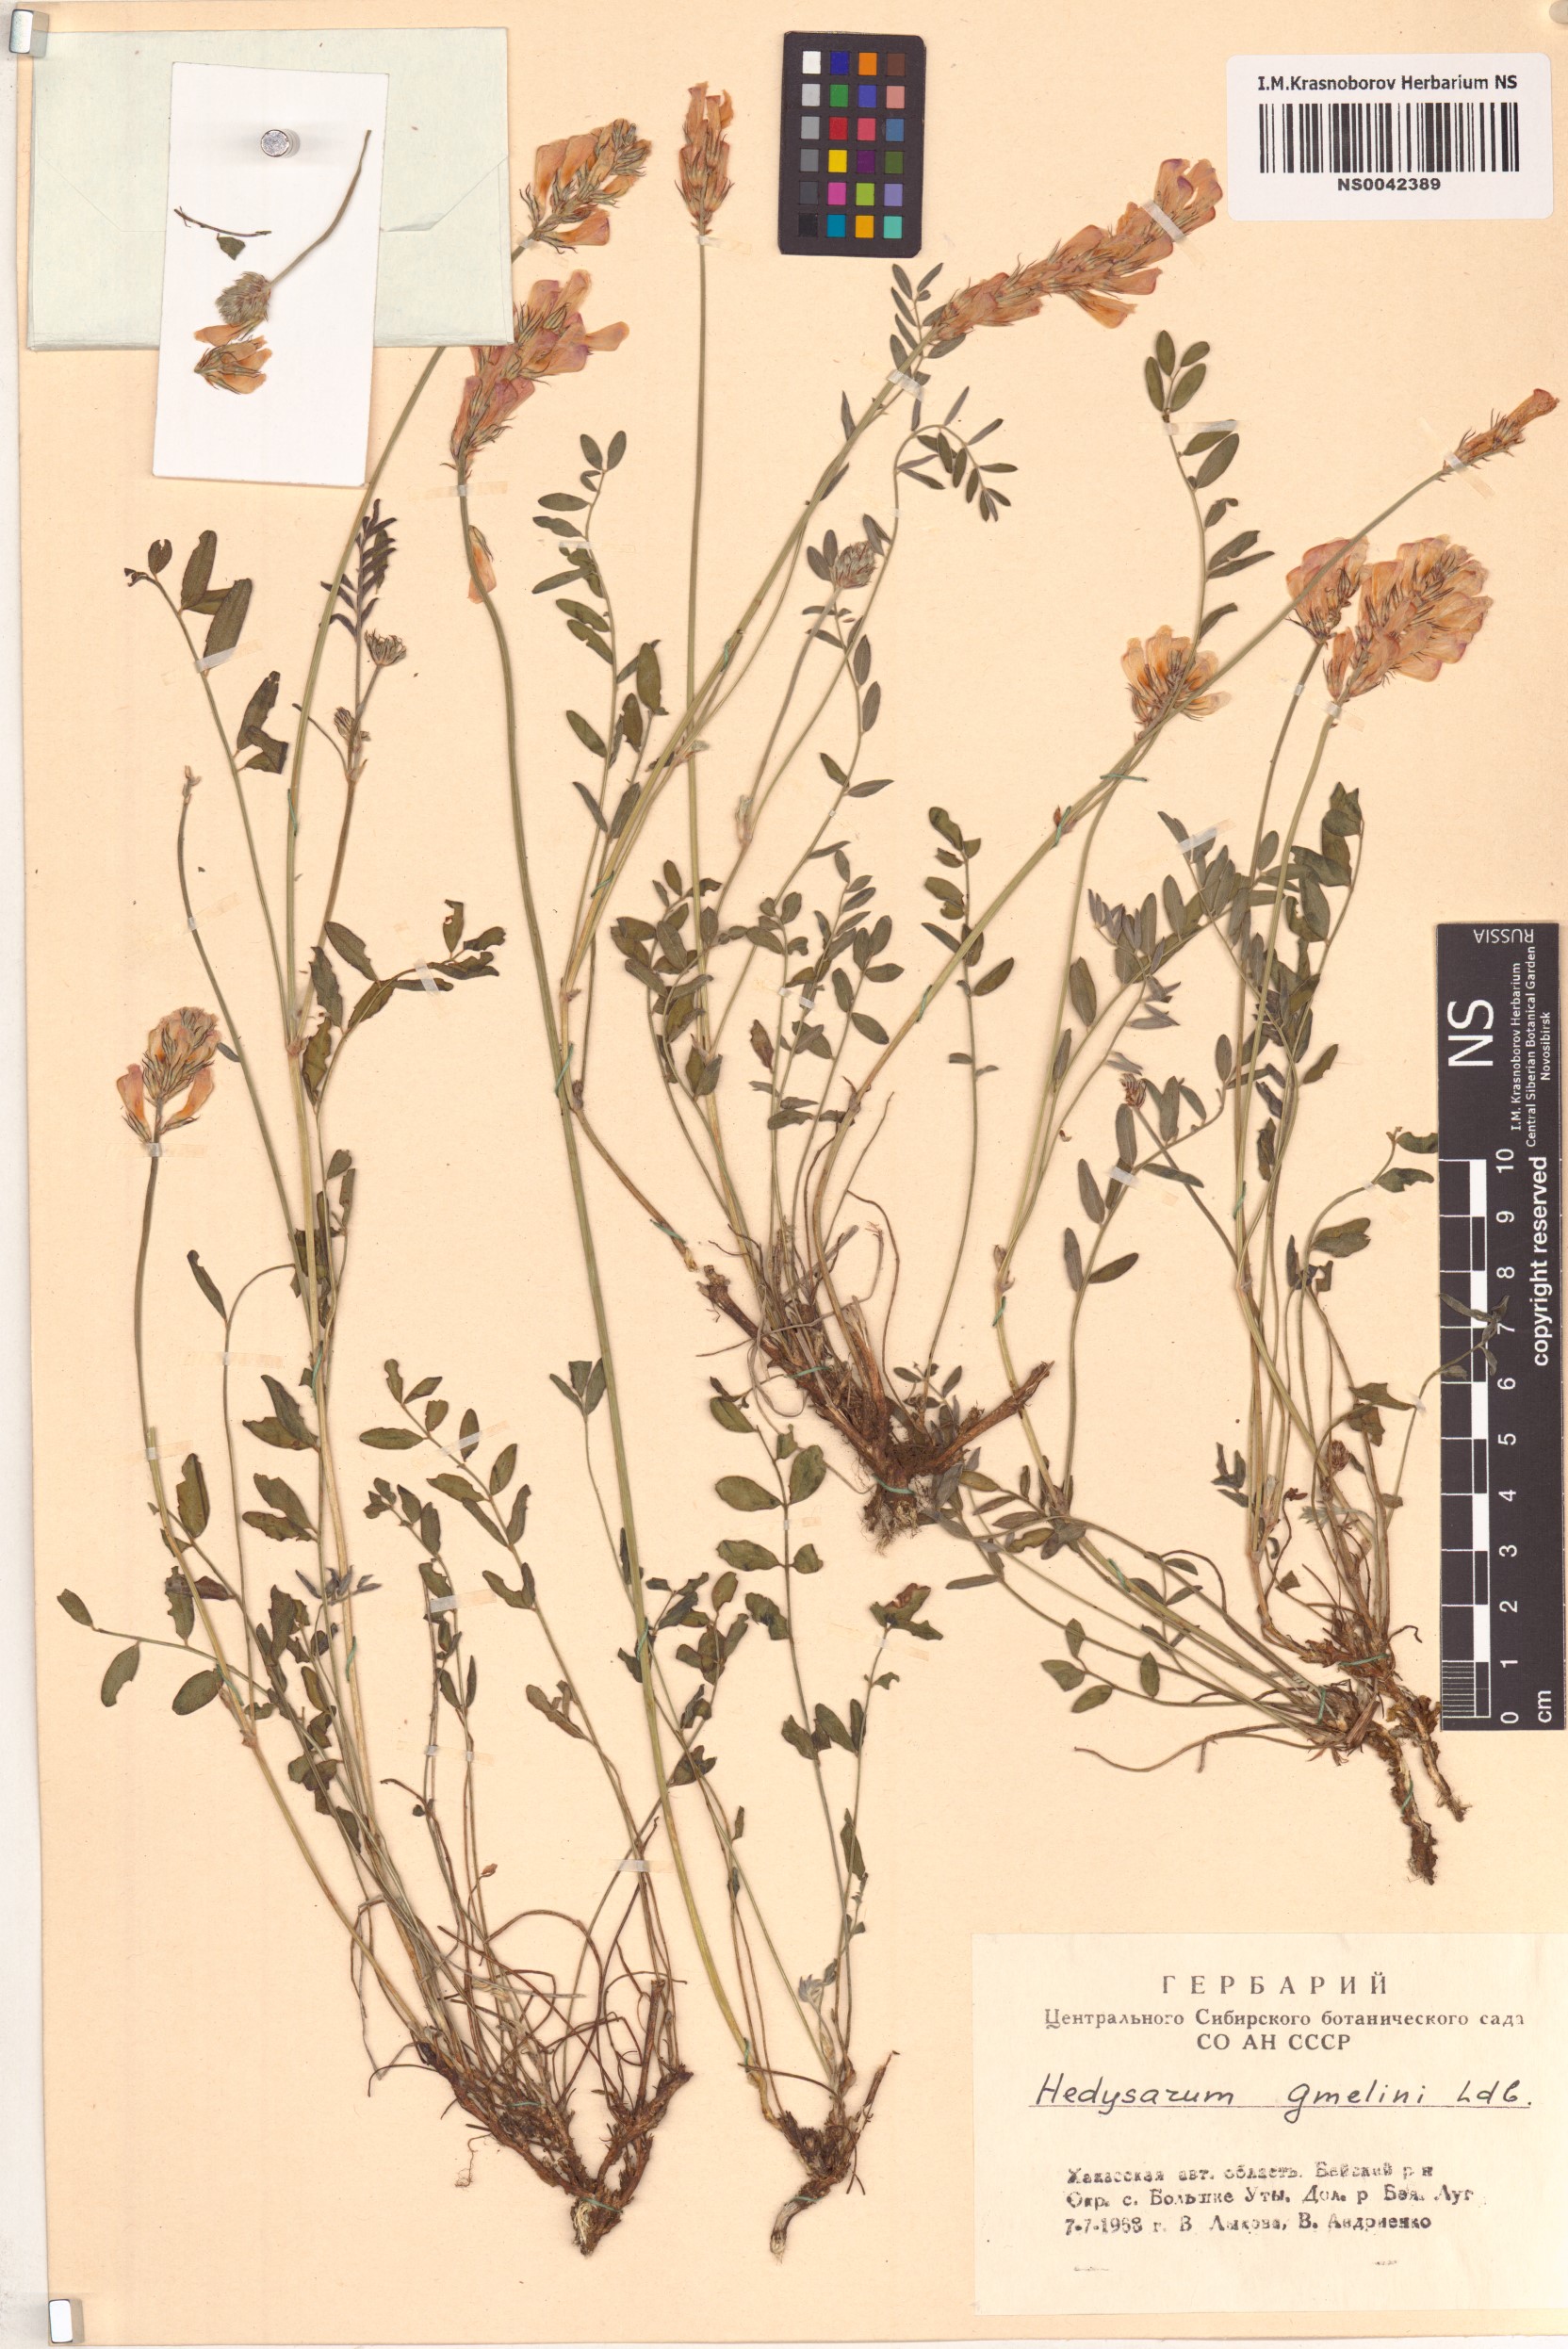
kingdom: Plantae
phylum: Tracheophyta
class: Magnoliopsida
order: Fabales
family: Fabaceae
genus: Hedysarum
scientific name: Hedysarum gmelinii
